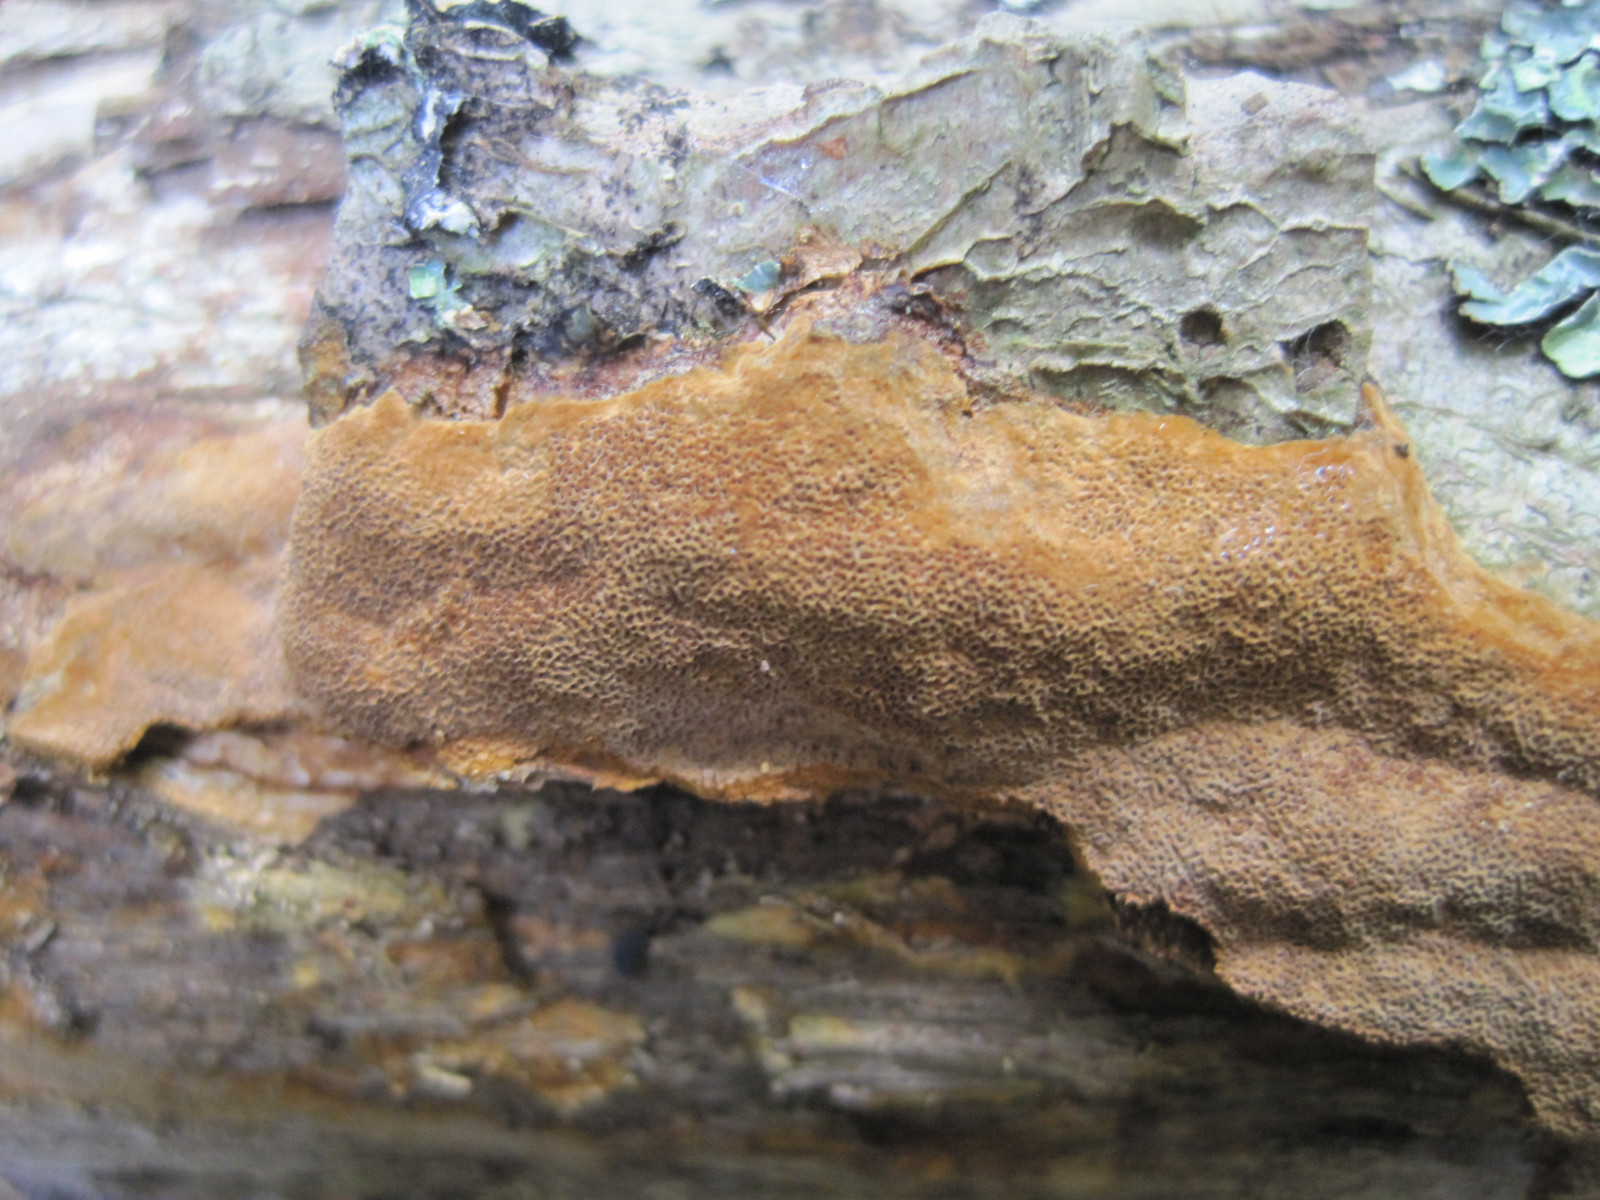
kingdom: Fungi
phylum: Basidiomycota
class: Agaricomycetes
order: Hymenochaetales
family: Hymenochaetaceae
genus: Fuscoporia
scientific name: Fuscoporia ferrea
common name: skorpe-ildporesvamp
